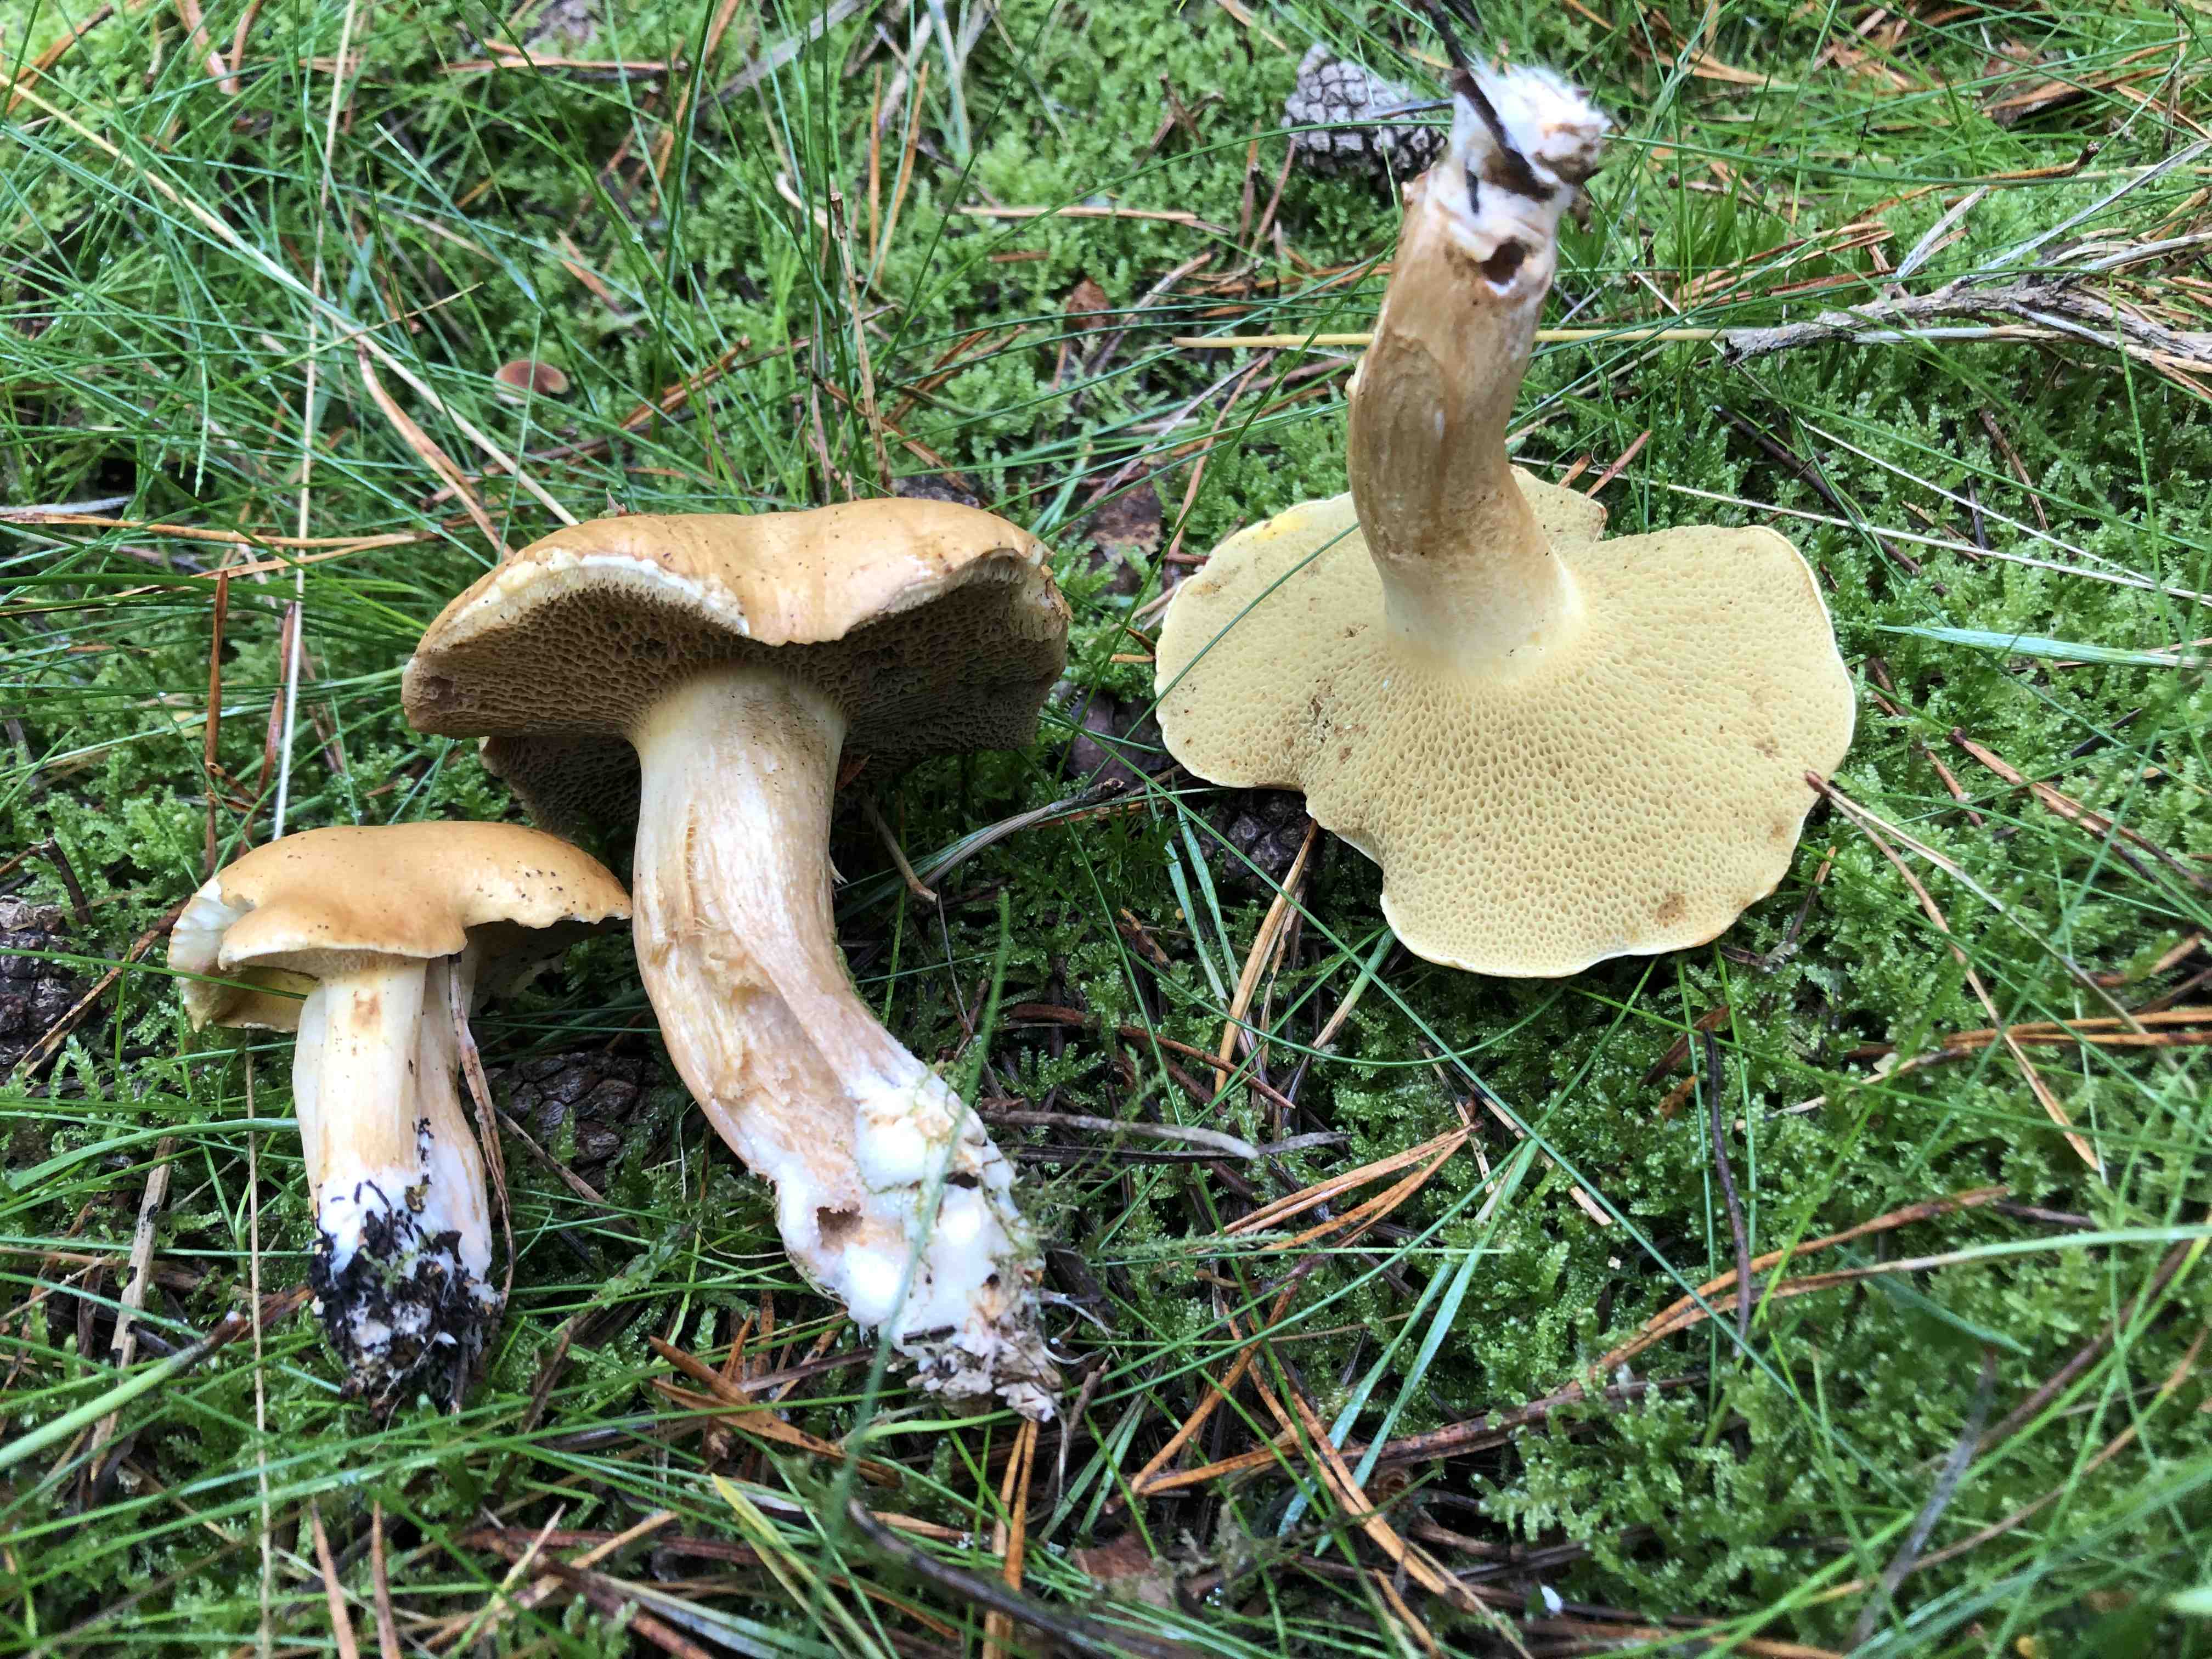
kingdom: Fungi
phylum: Basidiomycota
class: Agaricomycetes
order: Boletales
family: Suillaceae
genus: Suillus
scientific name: Suillus bovinus
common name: grovporet slimrørhat
